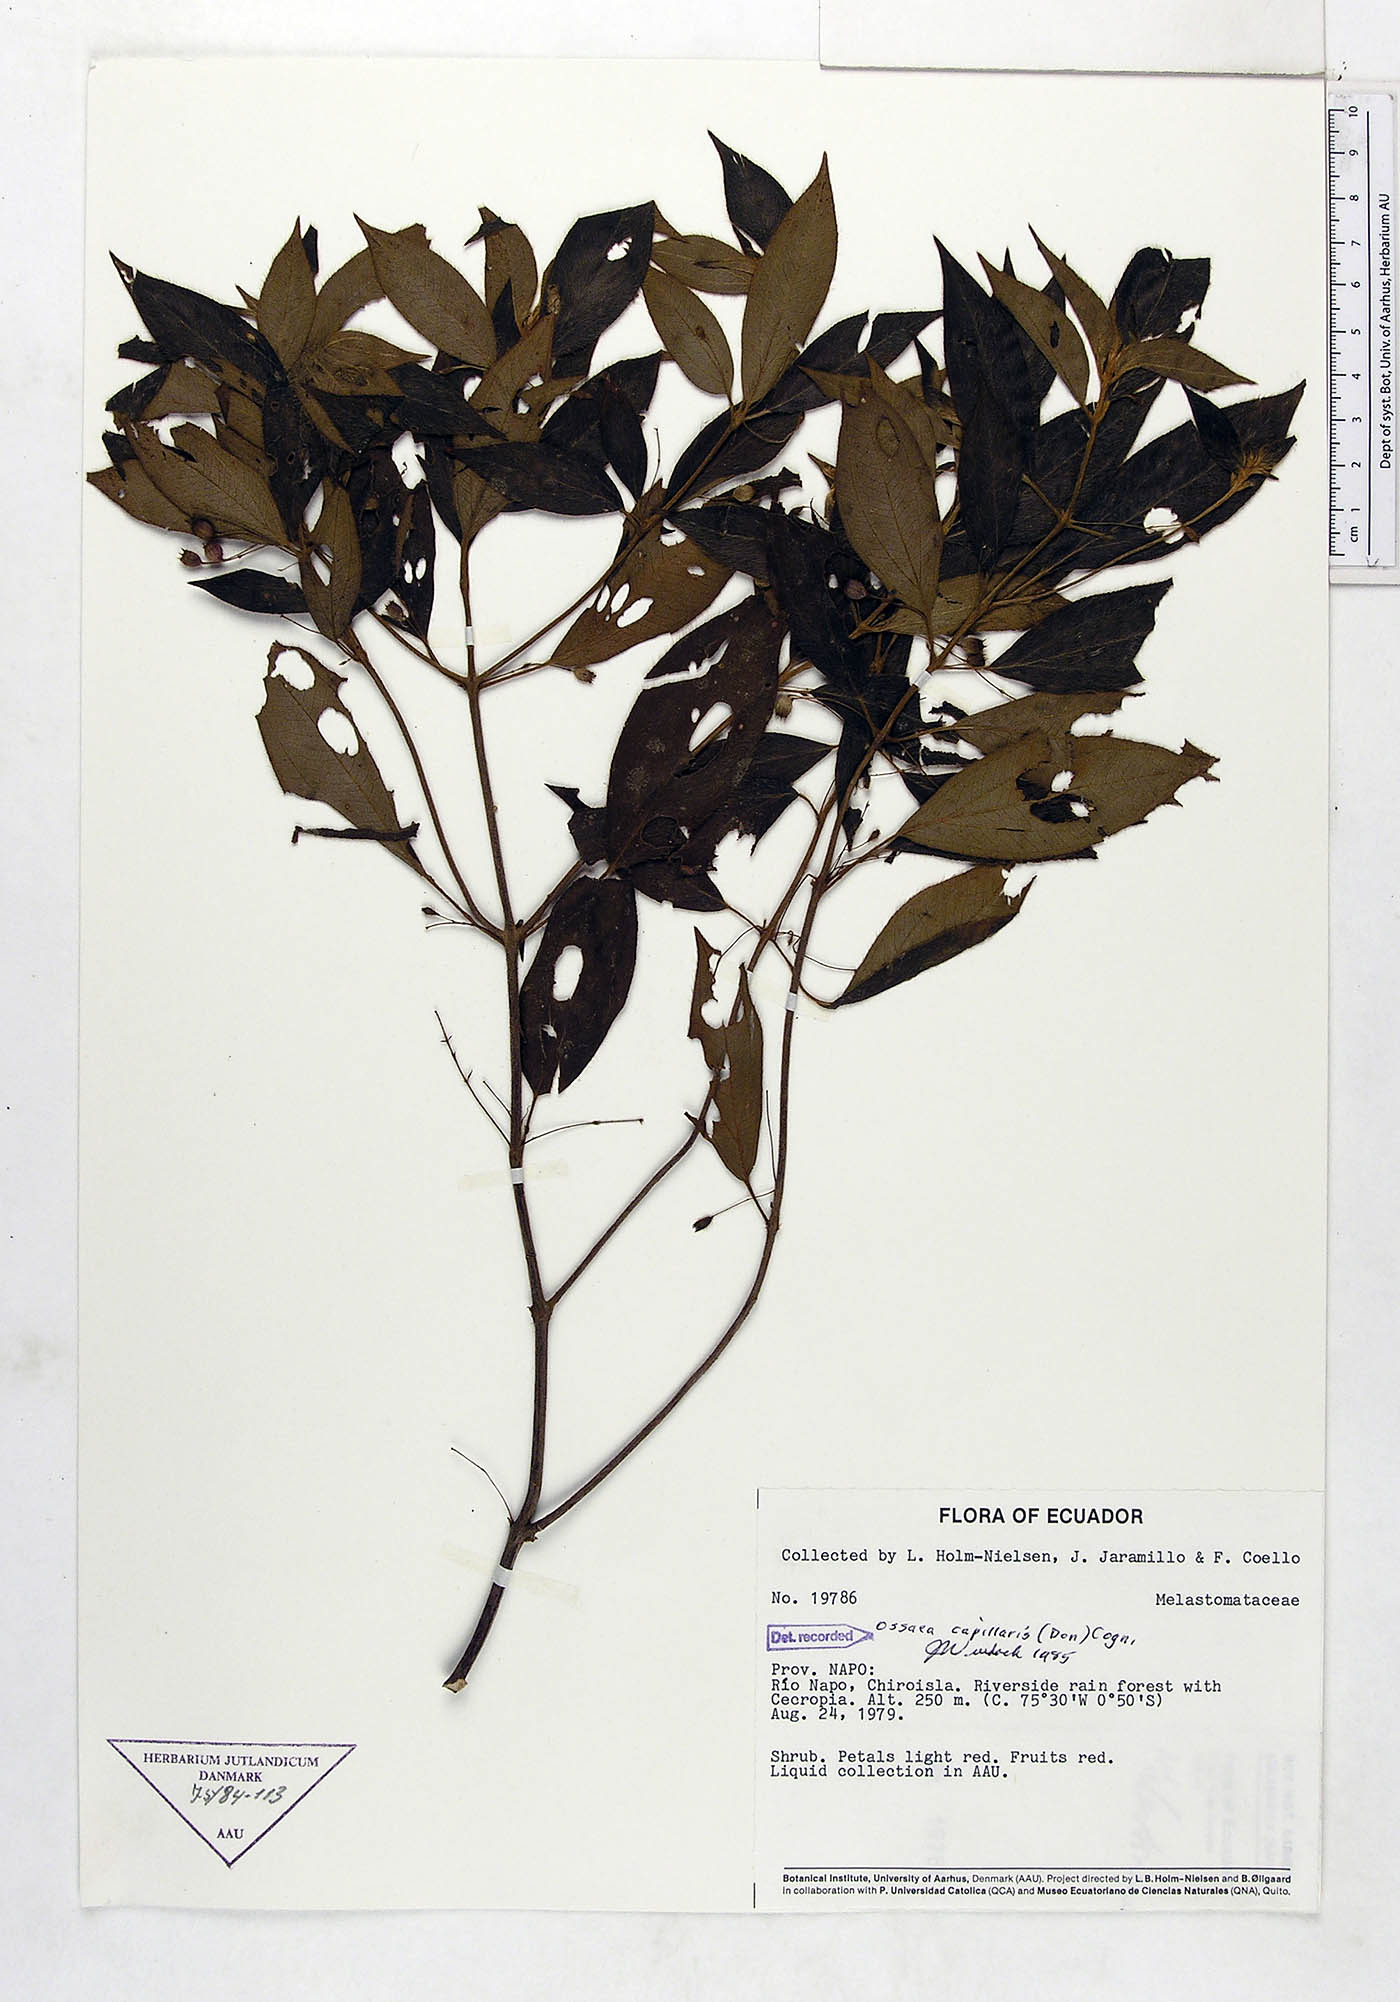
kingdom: Plantae
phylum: Tracheophyta
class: Magnoliopsida
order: Myrtales
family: Melastomataceae
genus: Miconia
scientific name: Miconia leptopus
